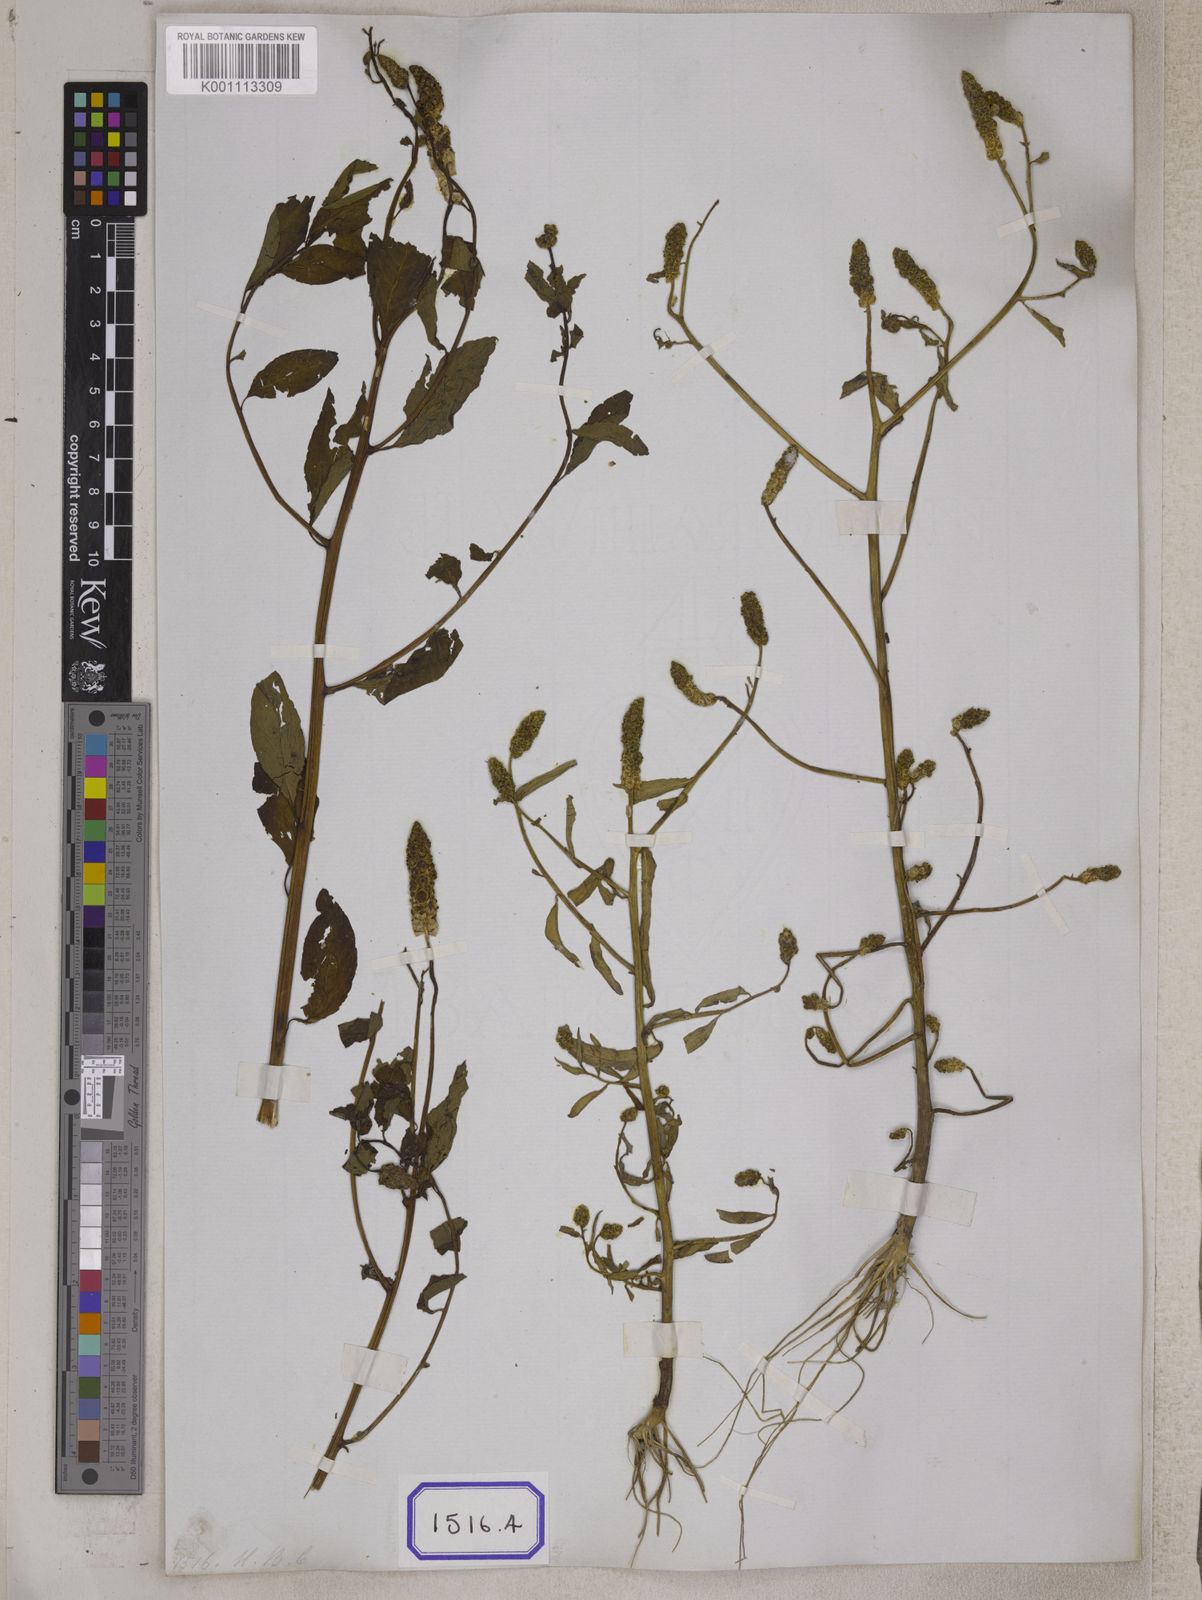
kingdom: Plantae
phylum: Tracheophyta
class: Magnoliopsida
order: Solanales
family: Sphenocleaceae
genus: Sphenoclea
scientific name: Sphenoclea
